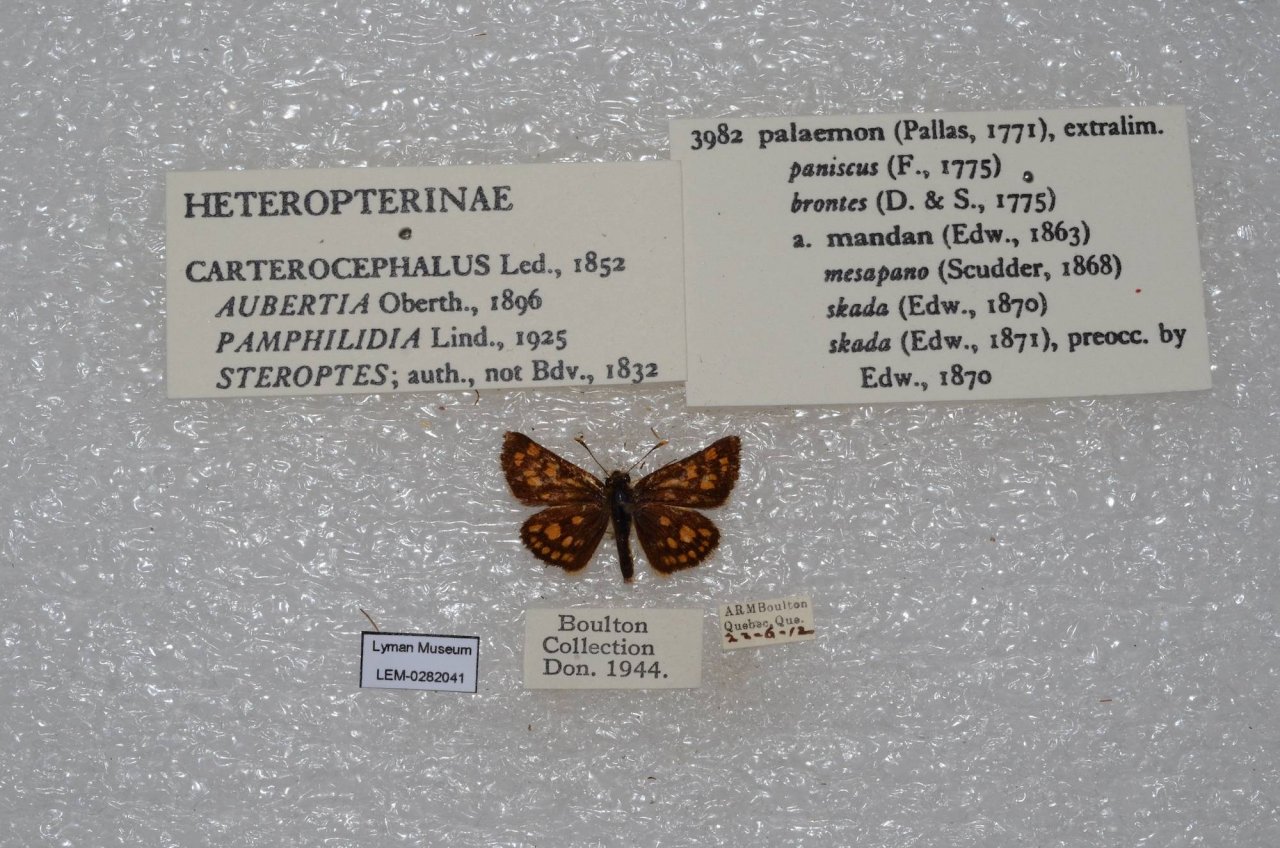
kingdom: Animalia
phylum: Arthropoda
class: Insecta
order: Lepidoptera
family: Hesperiidae
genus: Carterocephalus
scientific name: Carterocephalus palaemon
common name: Chequered Skipper
